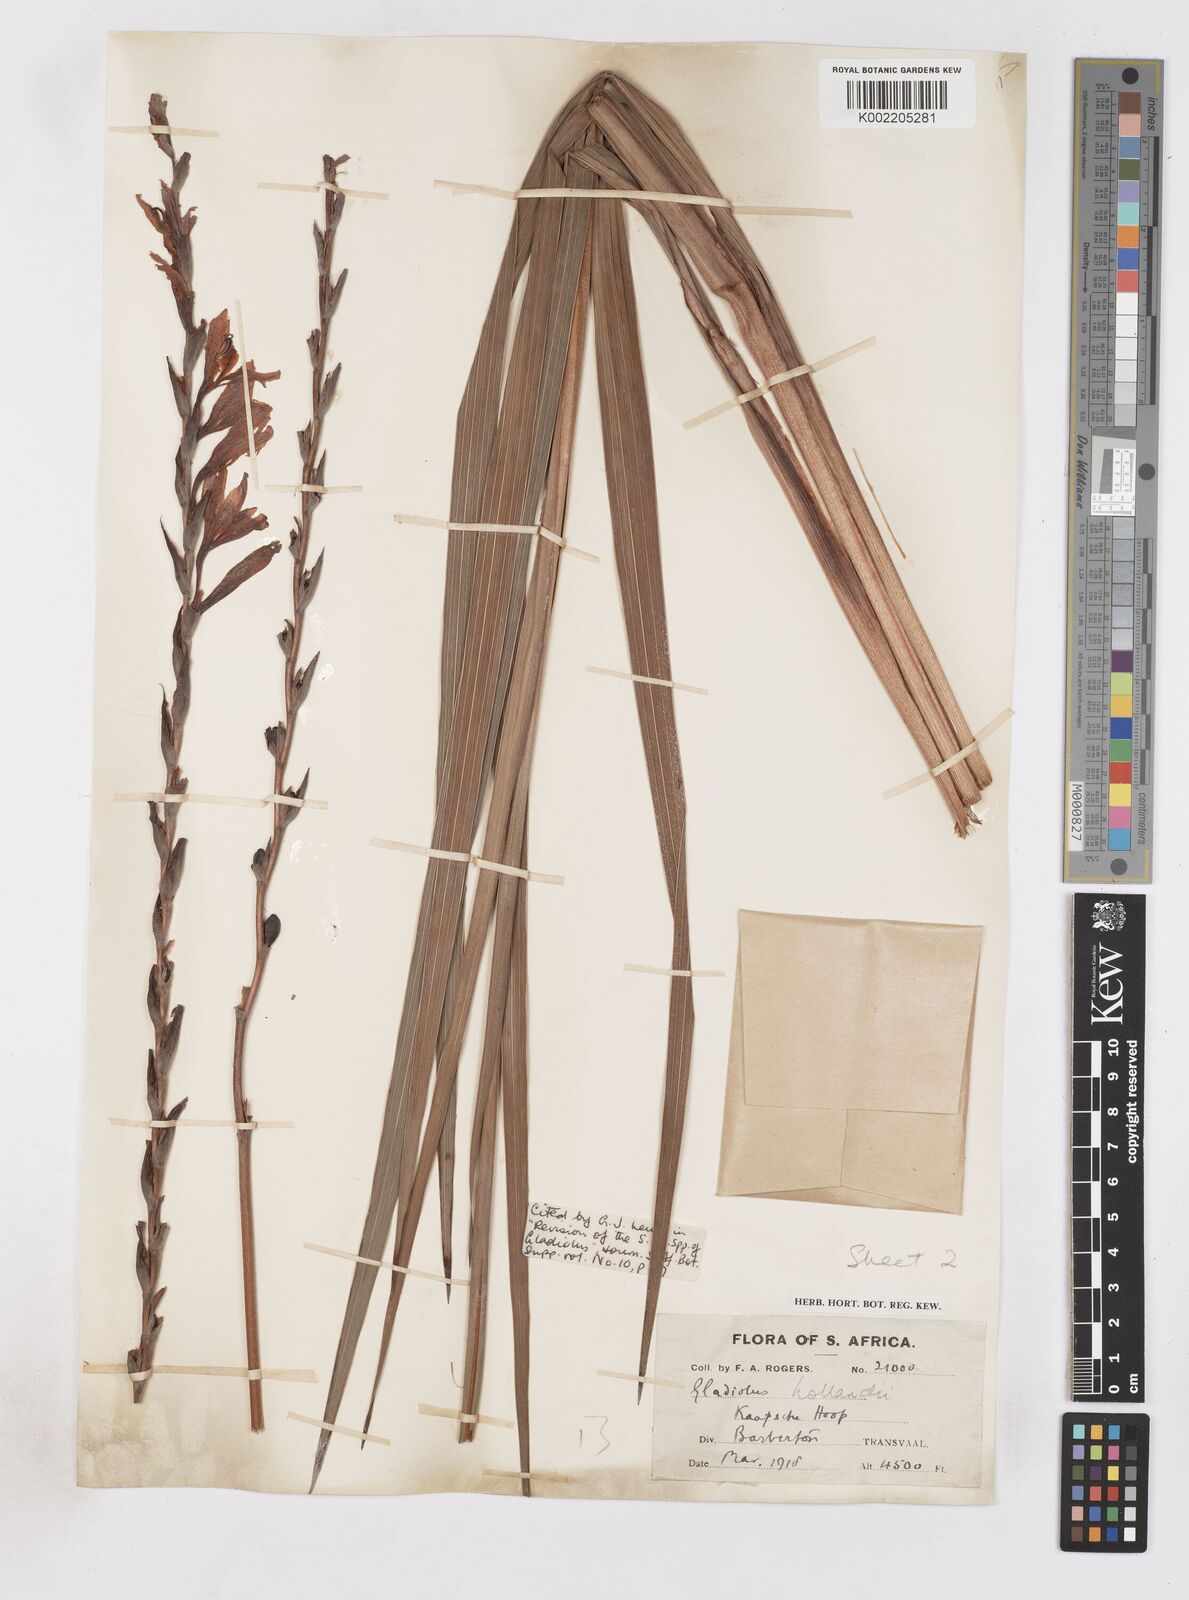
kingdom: Plantae
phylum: Tracheophyta
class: Liliopsida
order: Asparagales
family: Iridaceae
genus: Gladiolus
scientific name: Gladiolus hollandii
